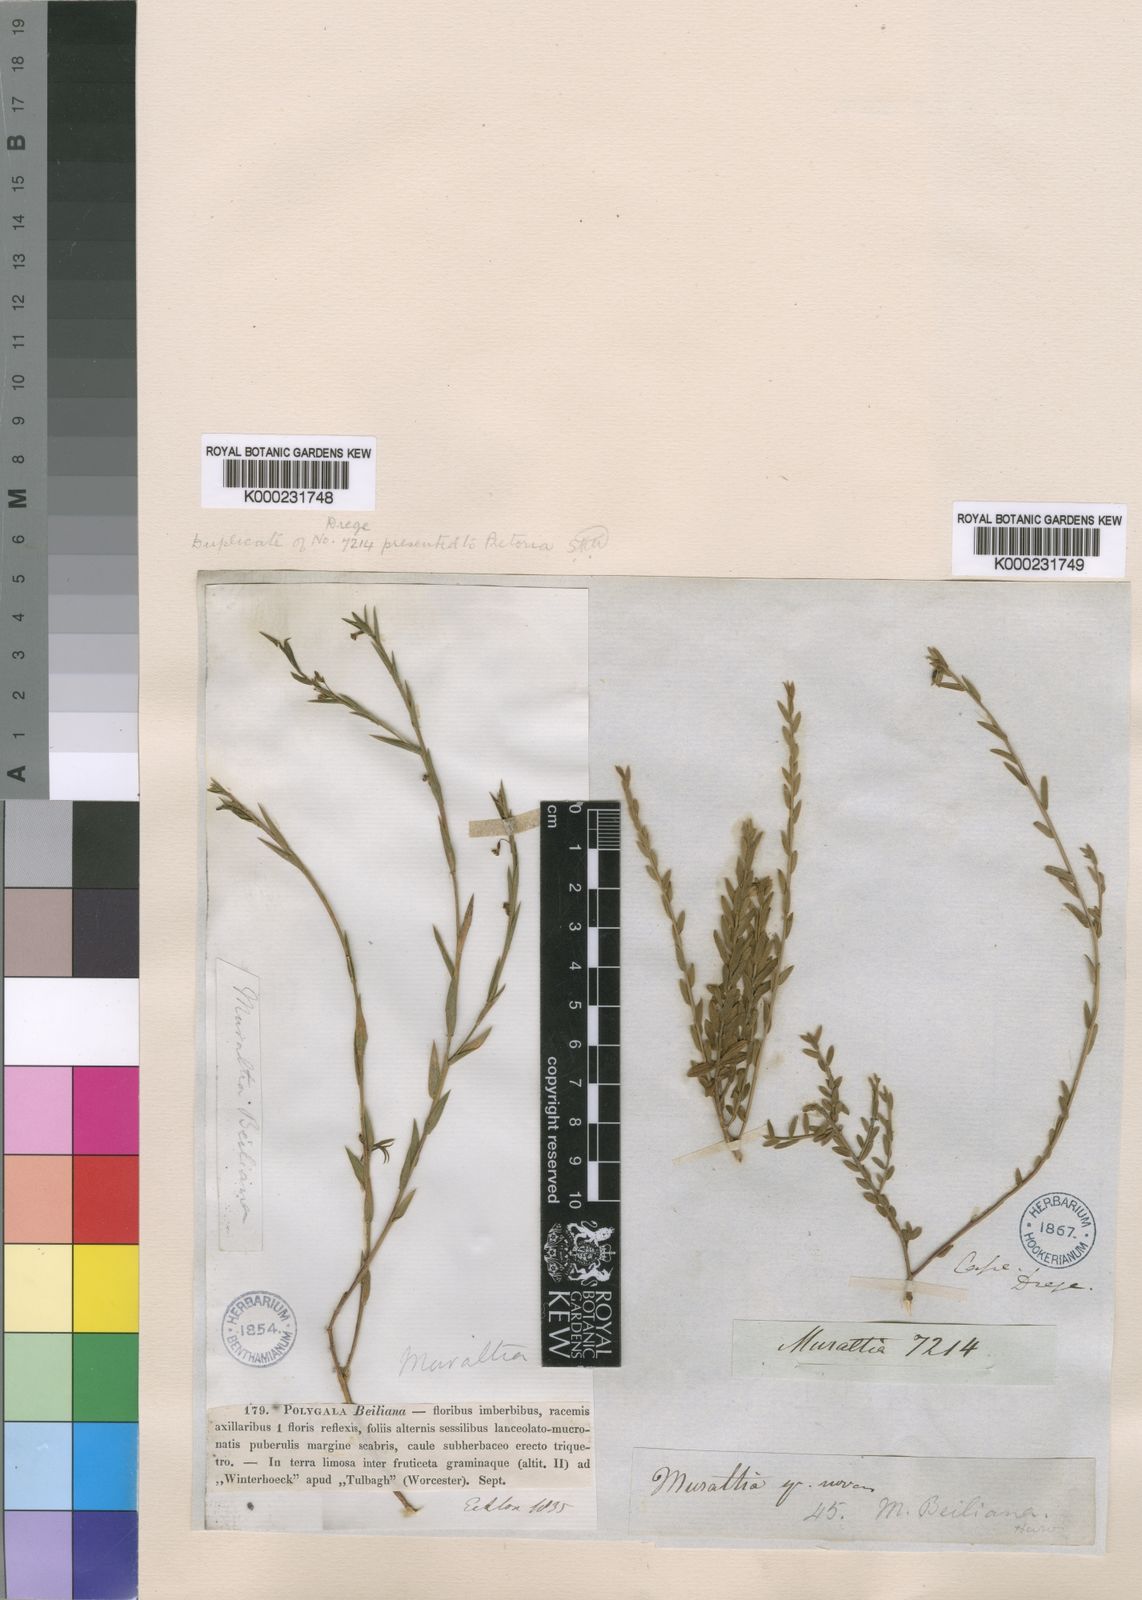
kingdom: Plantae
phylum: Tracheophyta
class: Magnoliopsida
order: Fabales
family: Polygalaceae
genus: Muraltia
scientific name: Muraltia muraltioides
